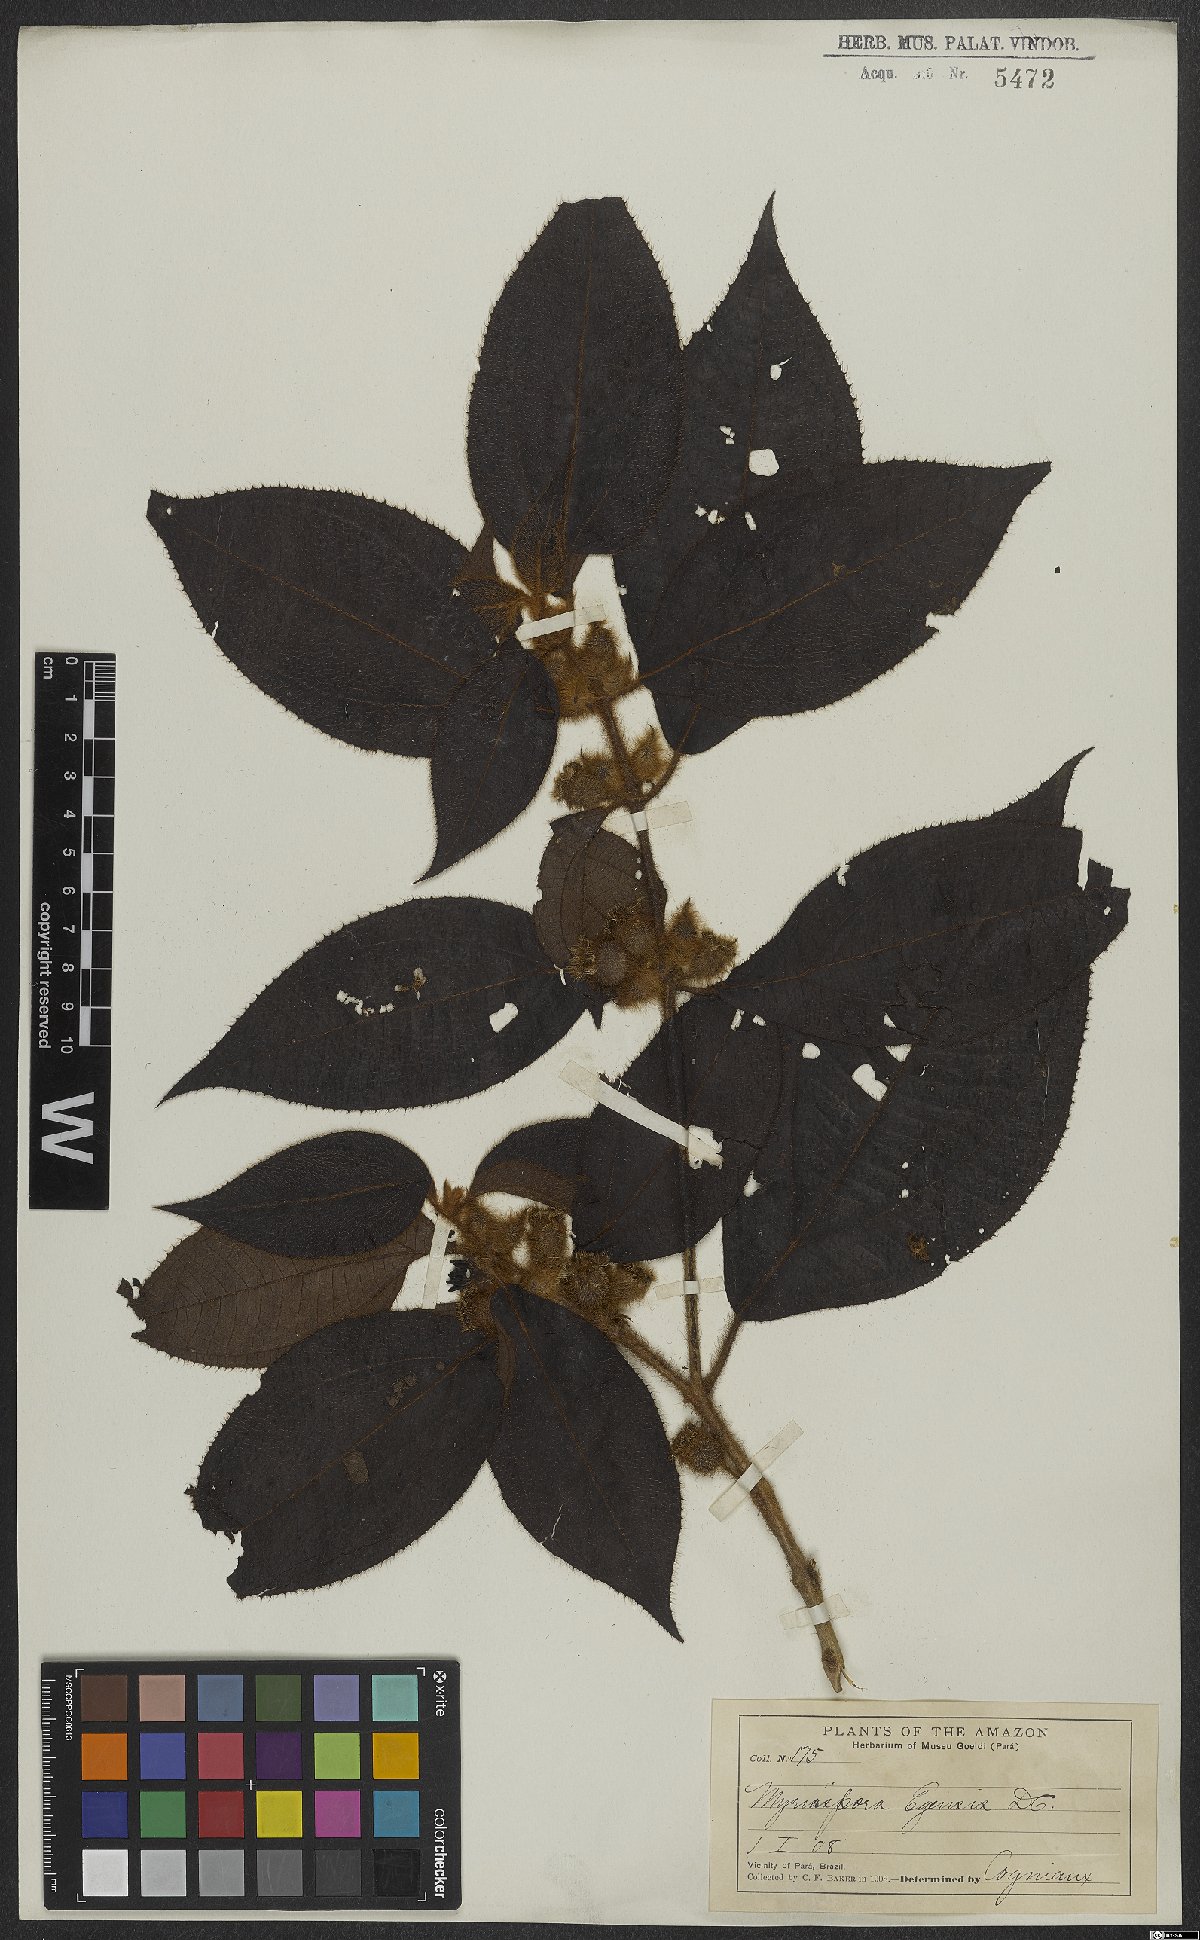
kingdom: Plantae
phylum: Tracheophyta
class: Magnoliopsida
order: Myrtales
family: Melastomataceae
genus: Bellucia
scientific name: Bellucia egensis
